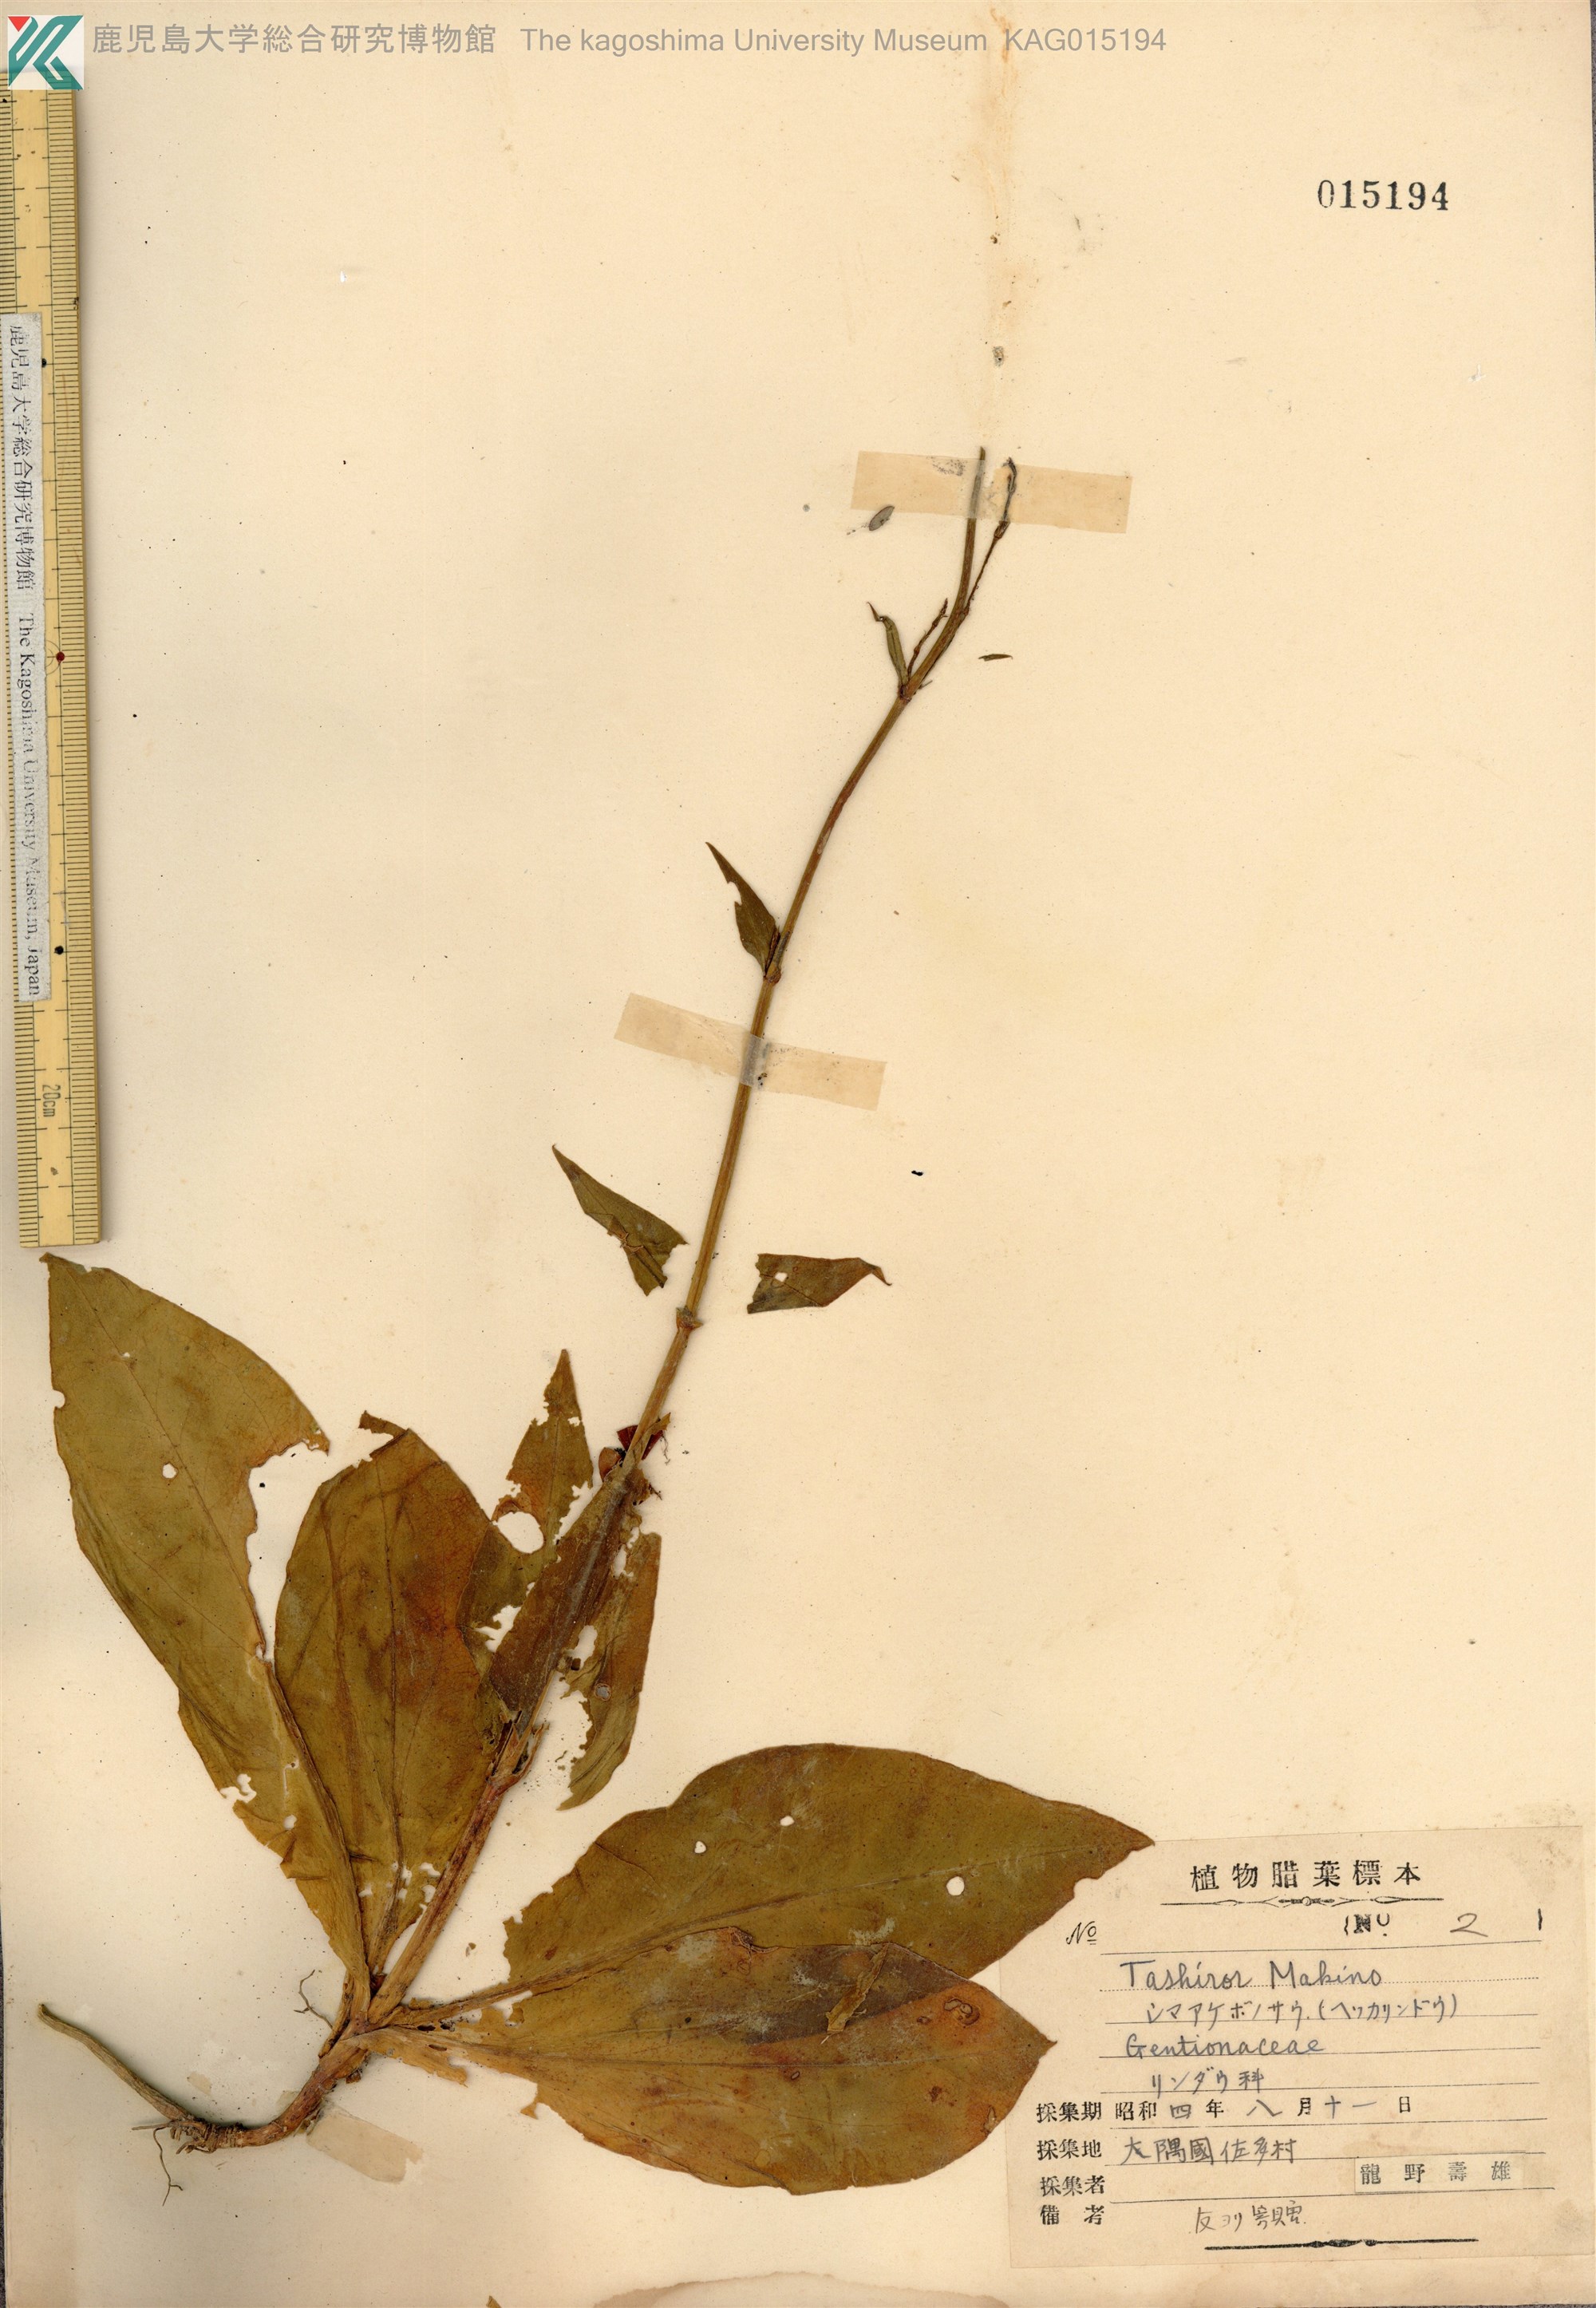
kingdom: Plantae
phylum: Tracheophyta
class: Magnoliopsida
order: Gentianales
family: Gentianaceae
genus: Swertia
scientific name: Swertia tashiroi
